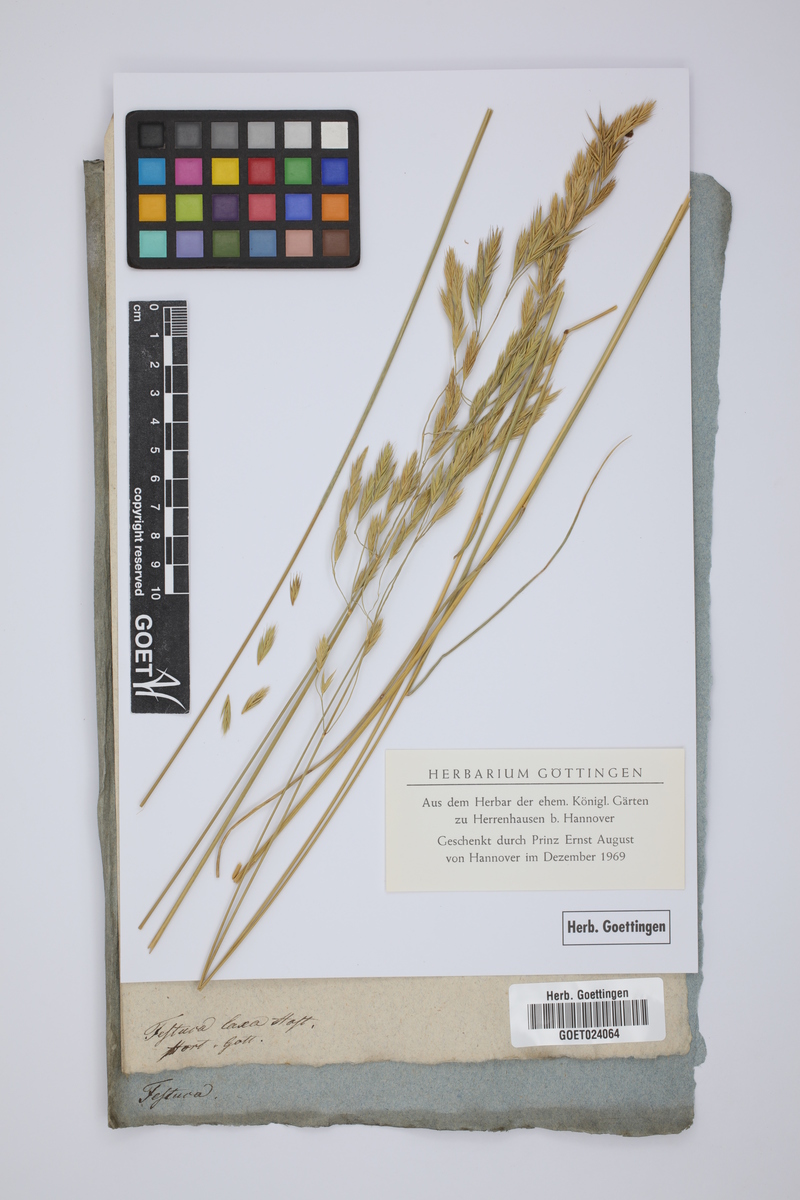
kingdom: Plantae
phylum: Tracheophyta
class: Liliopsida
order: Poales
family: Poaceae
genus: Festuca
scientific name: Festuca laxa
